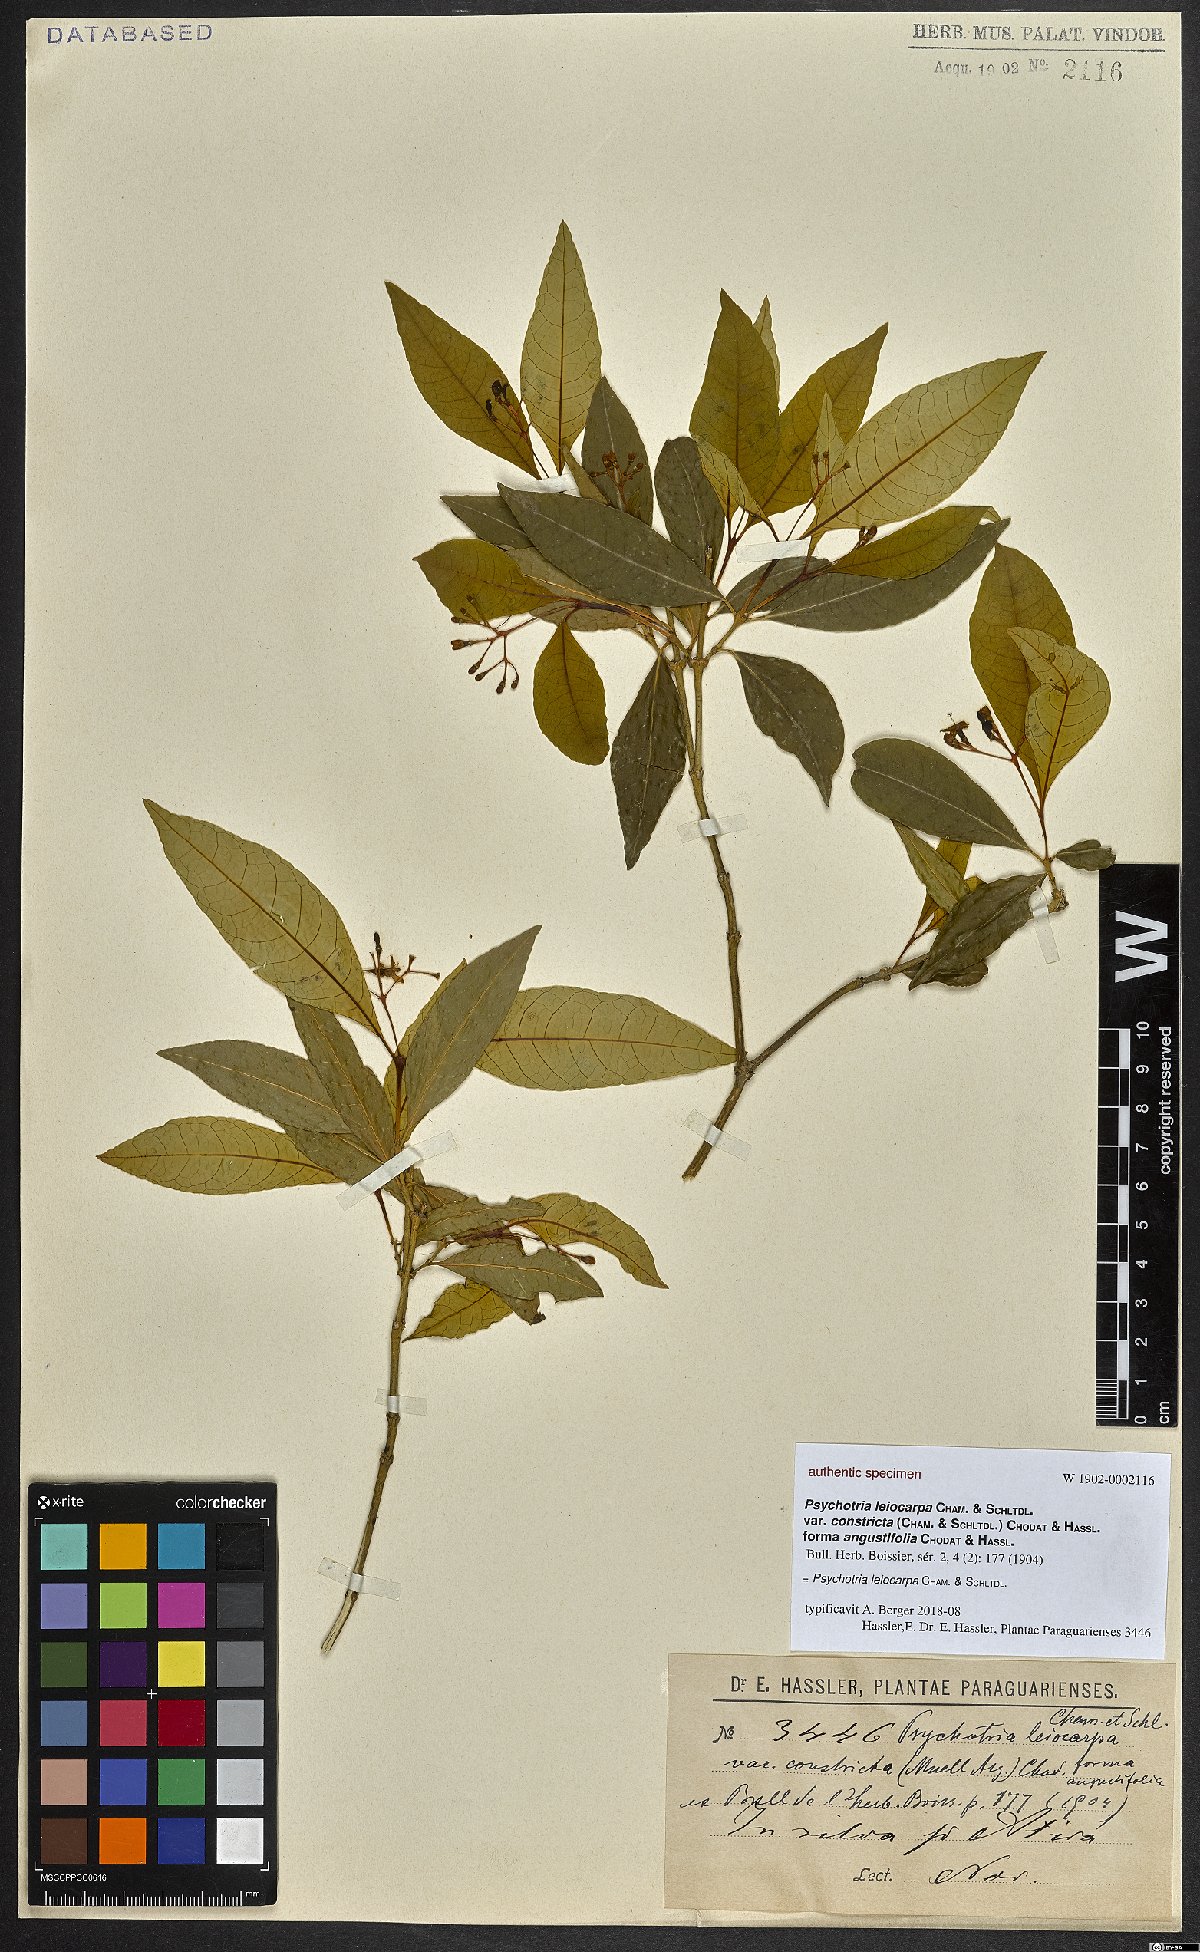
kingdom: Plantae
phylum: Tracheophyta
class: Magnoliopsida
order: Gentianales
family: Rubiaceae
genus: Psychotria
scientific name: Psychotria leiocarpa
